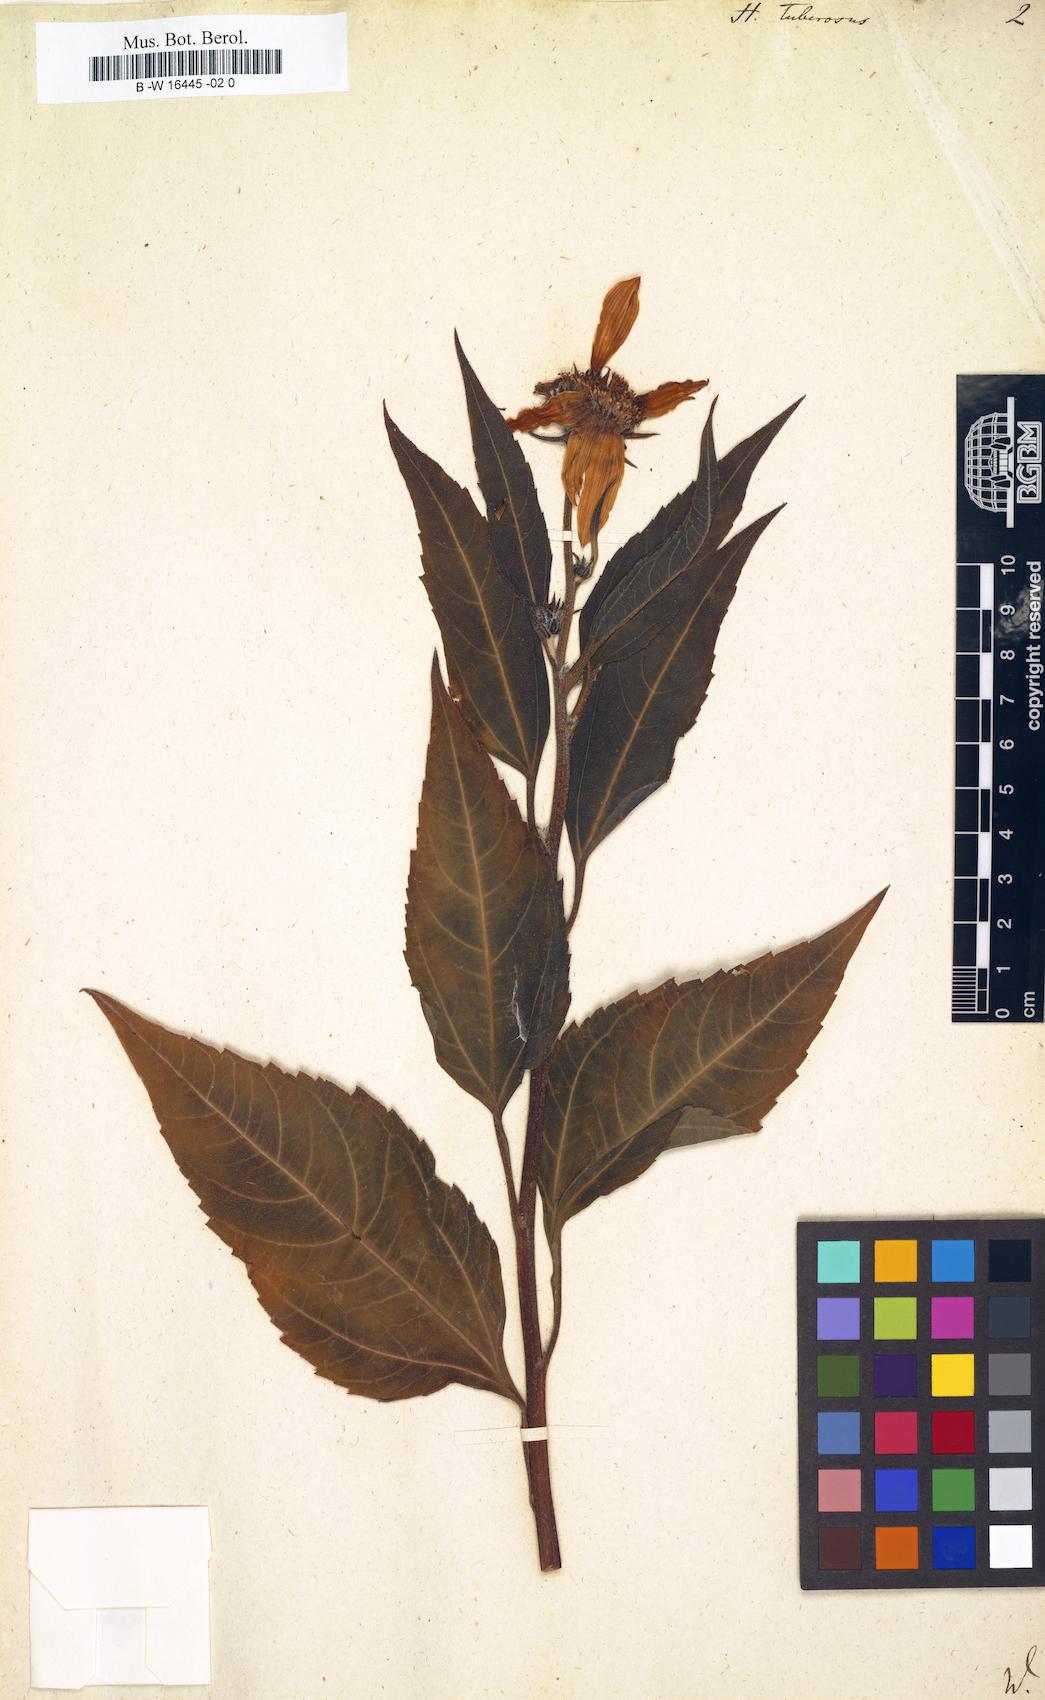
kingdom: Plantae
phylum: Tracheophyta
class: Magnoliopsida
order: Asterales
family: Asteraceae
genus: Helianthus
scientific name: Helianthus tuberosus
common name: Jerusalem artichoke
